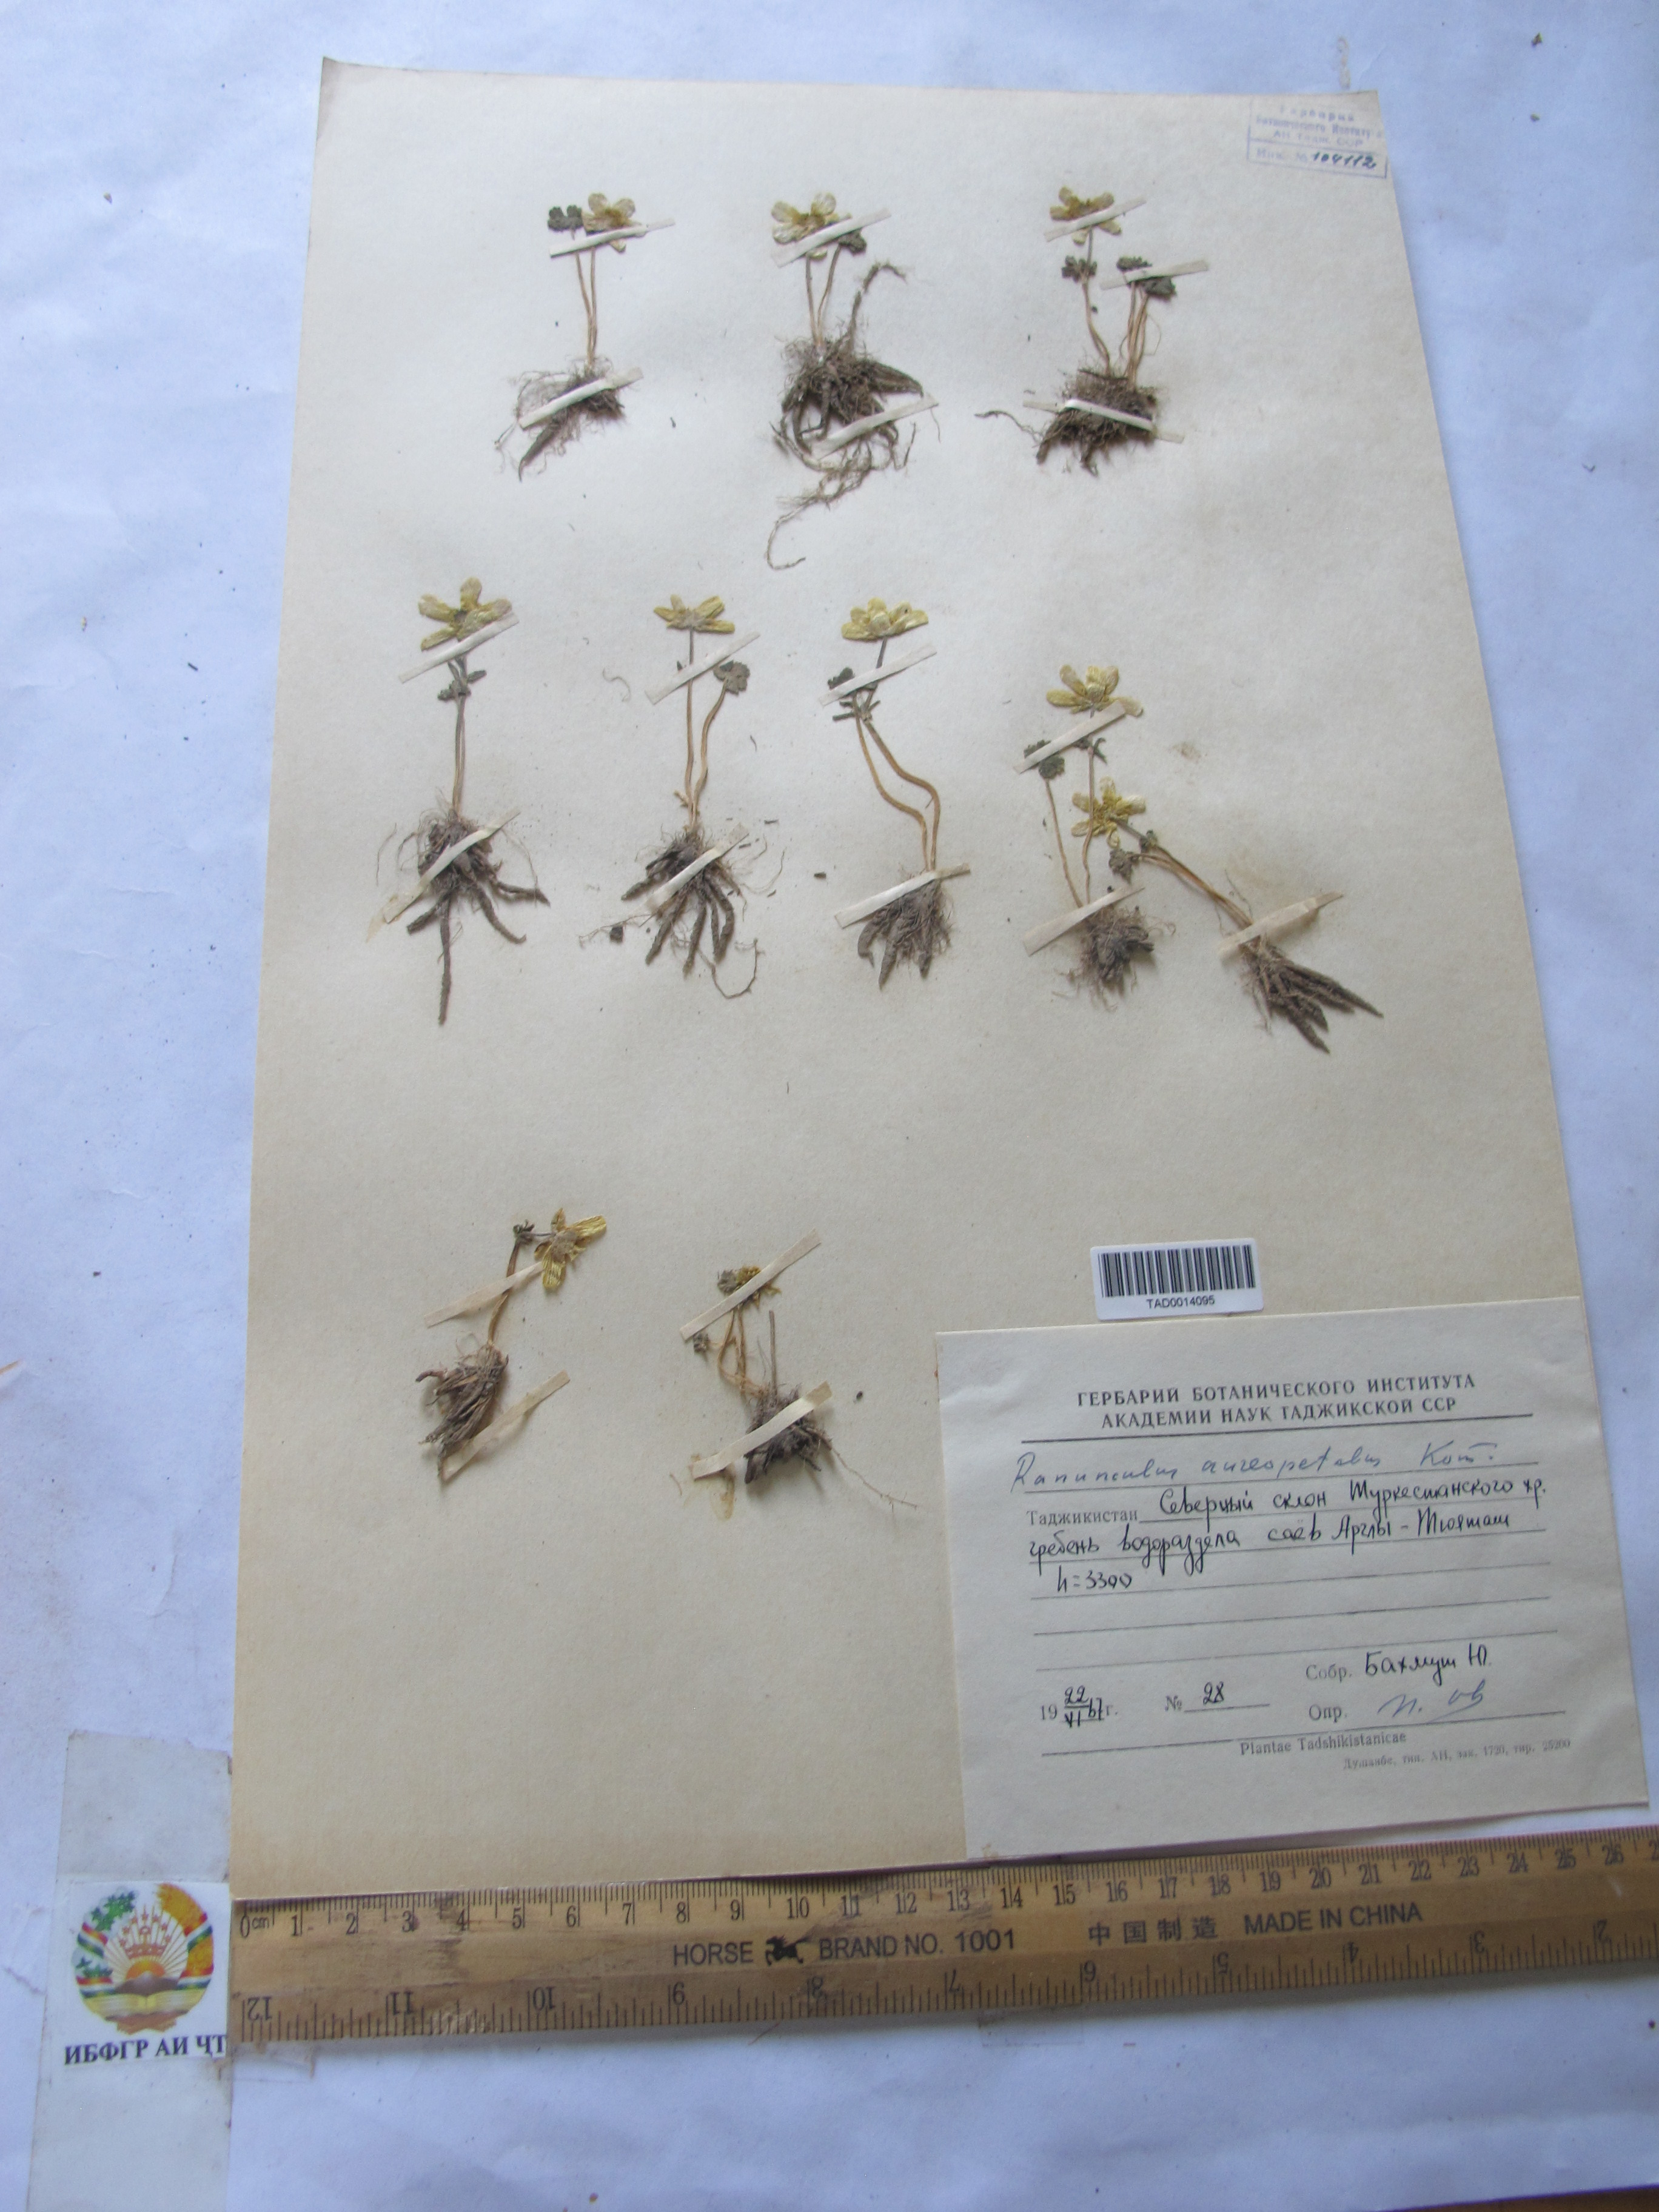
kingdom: Plantae
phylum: Tracheophyta
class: Magnoliopsida
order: Ranunculales
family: Ranunculaceae
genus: Ranunculus
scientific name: Ranunculus aureopetalus
